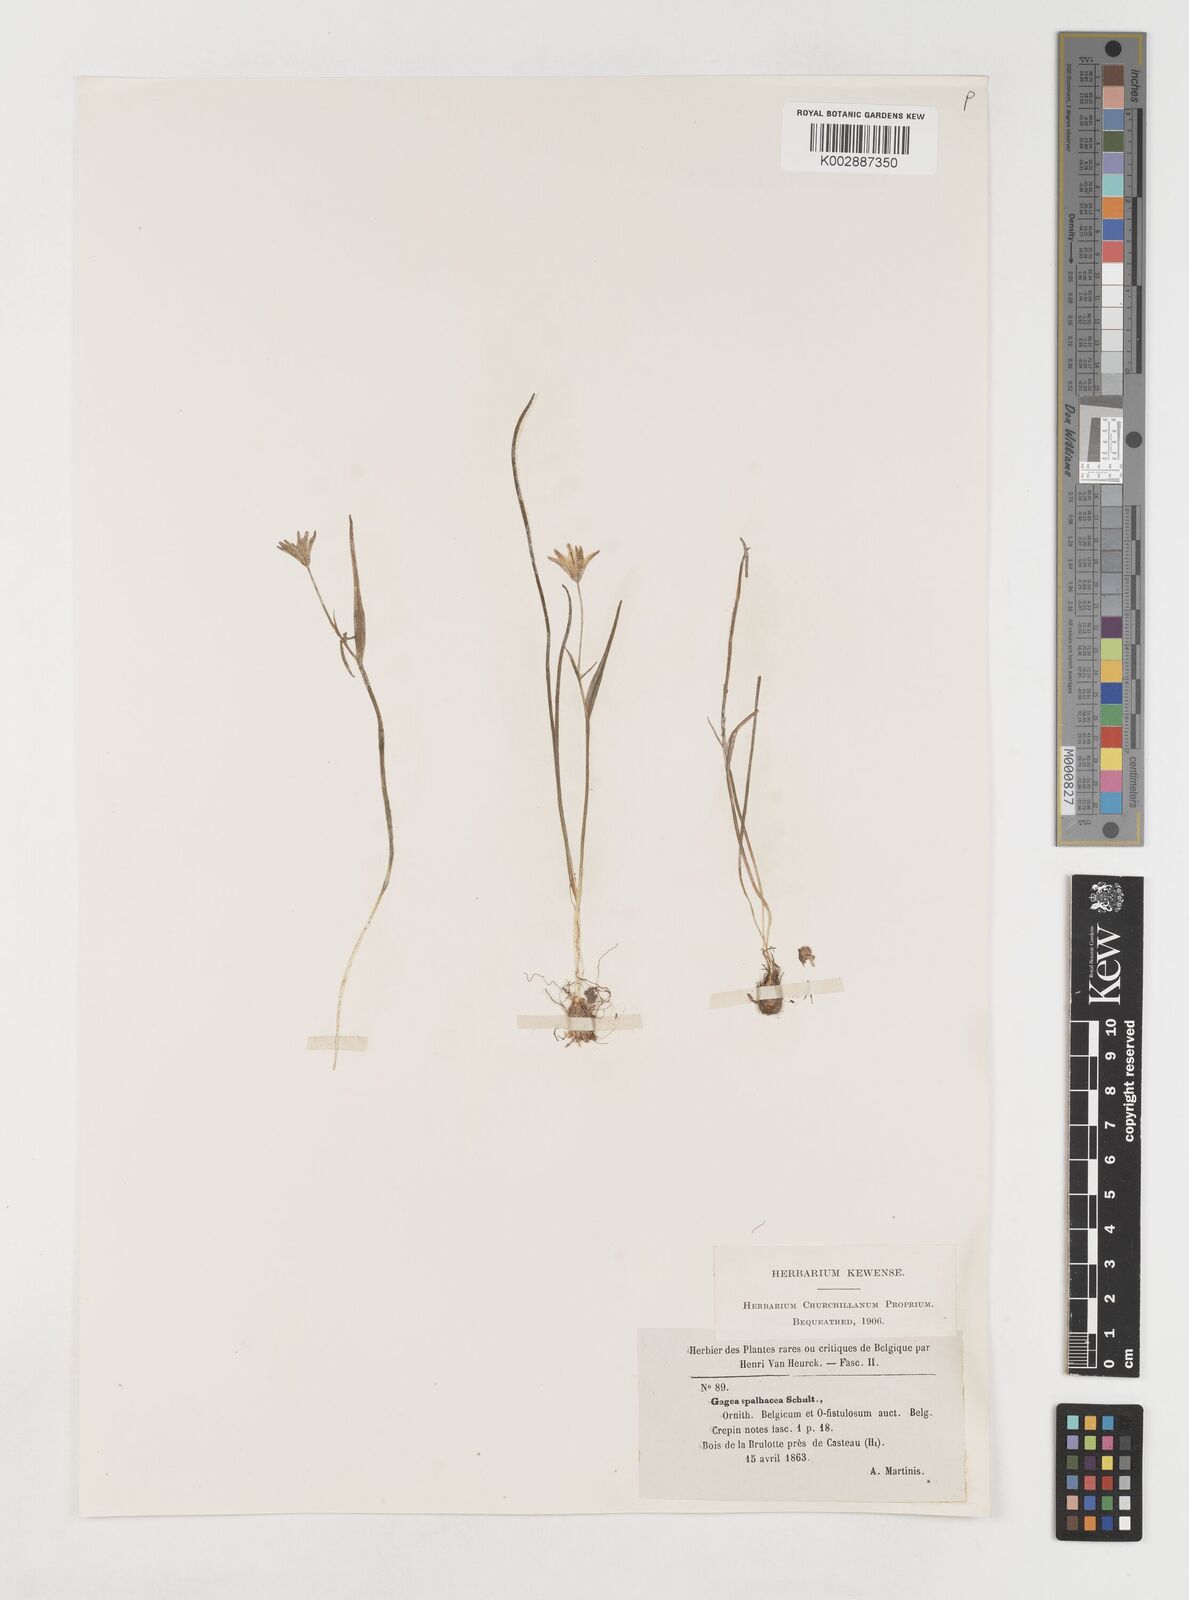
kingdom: Plantae
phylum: Tracheophyta
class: Liliopsida
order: Liliales
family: Liliaceae
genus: Gagea
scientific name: Gagea spathacea
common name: Belgian gagea
